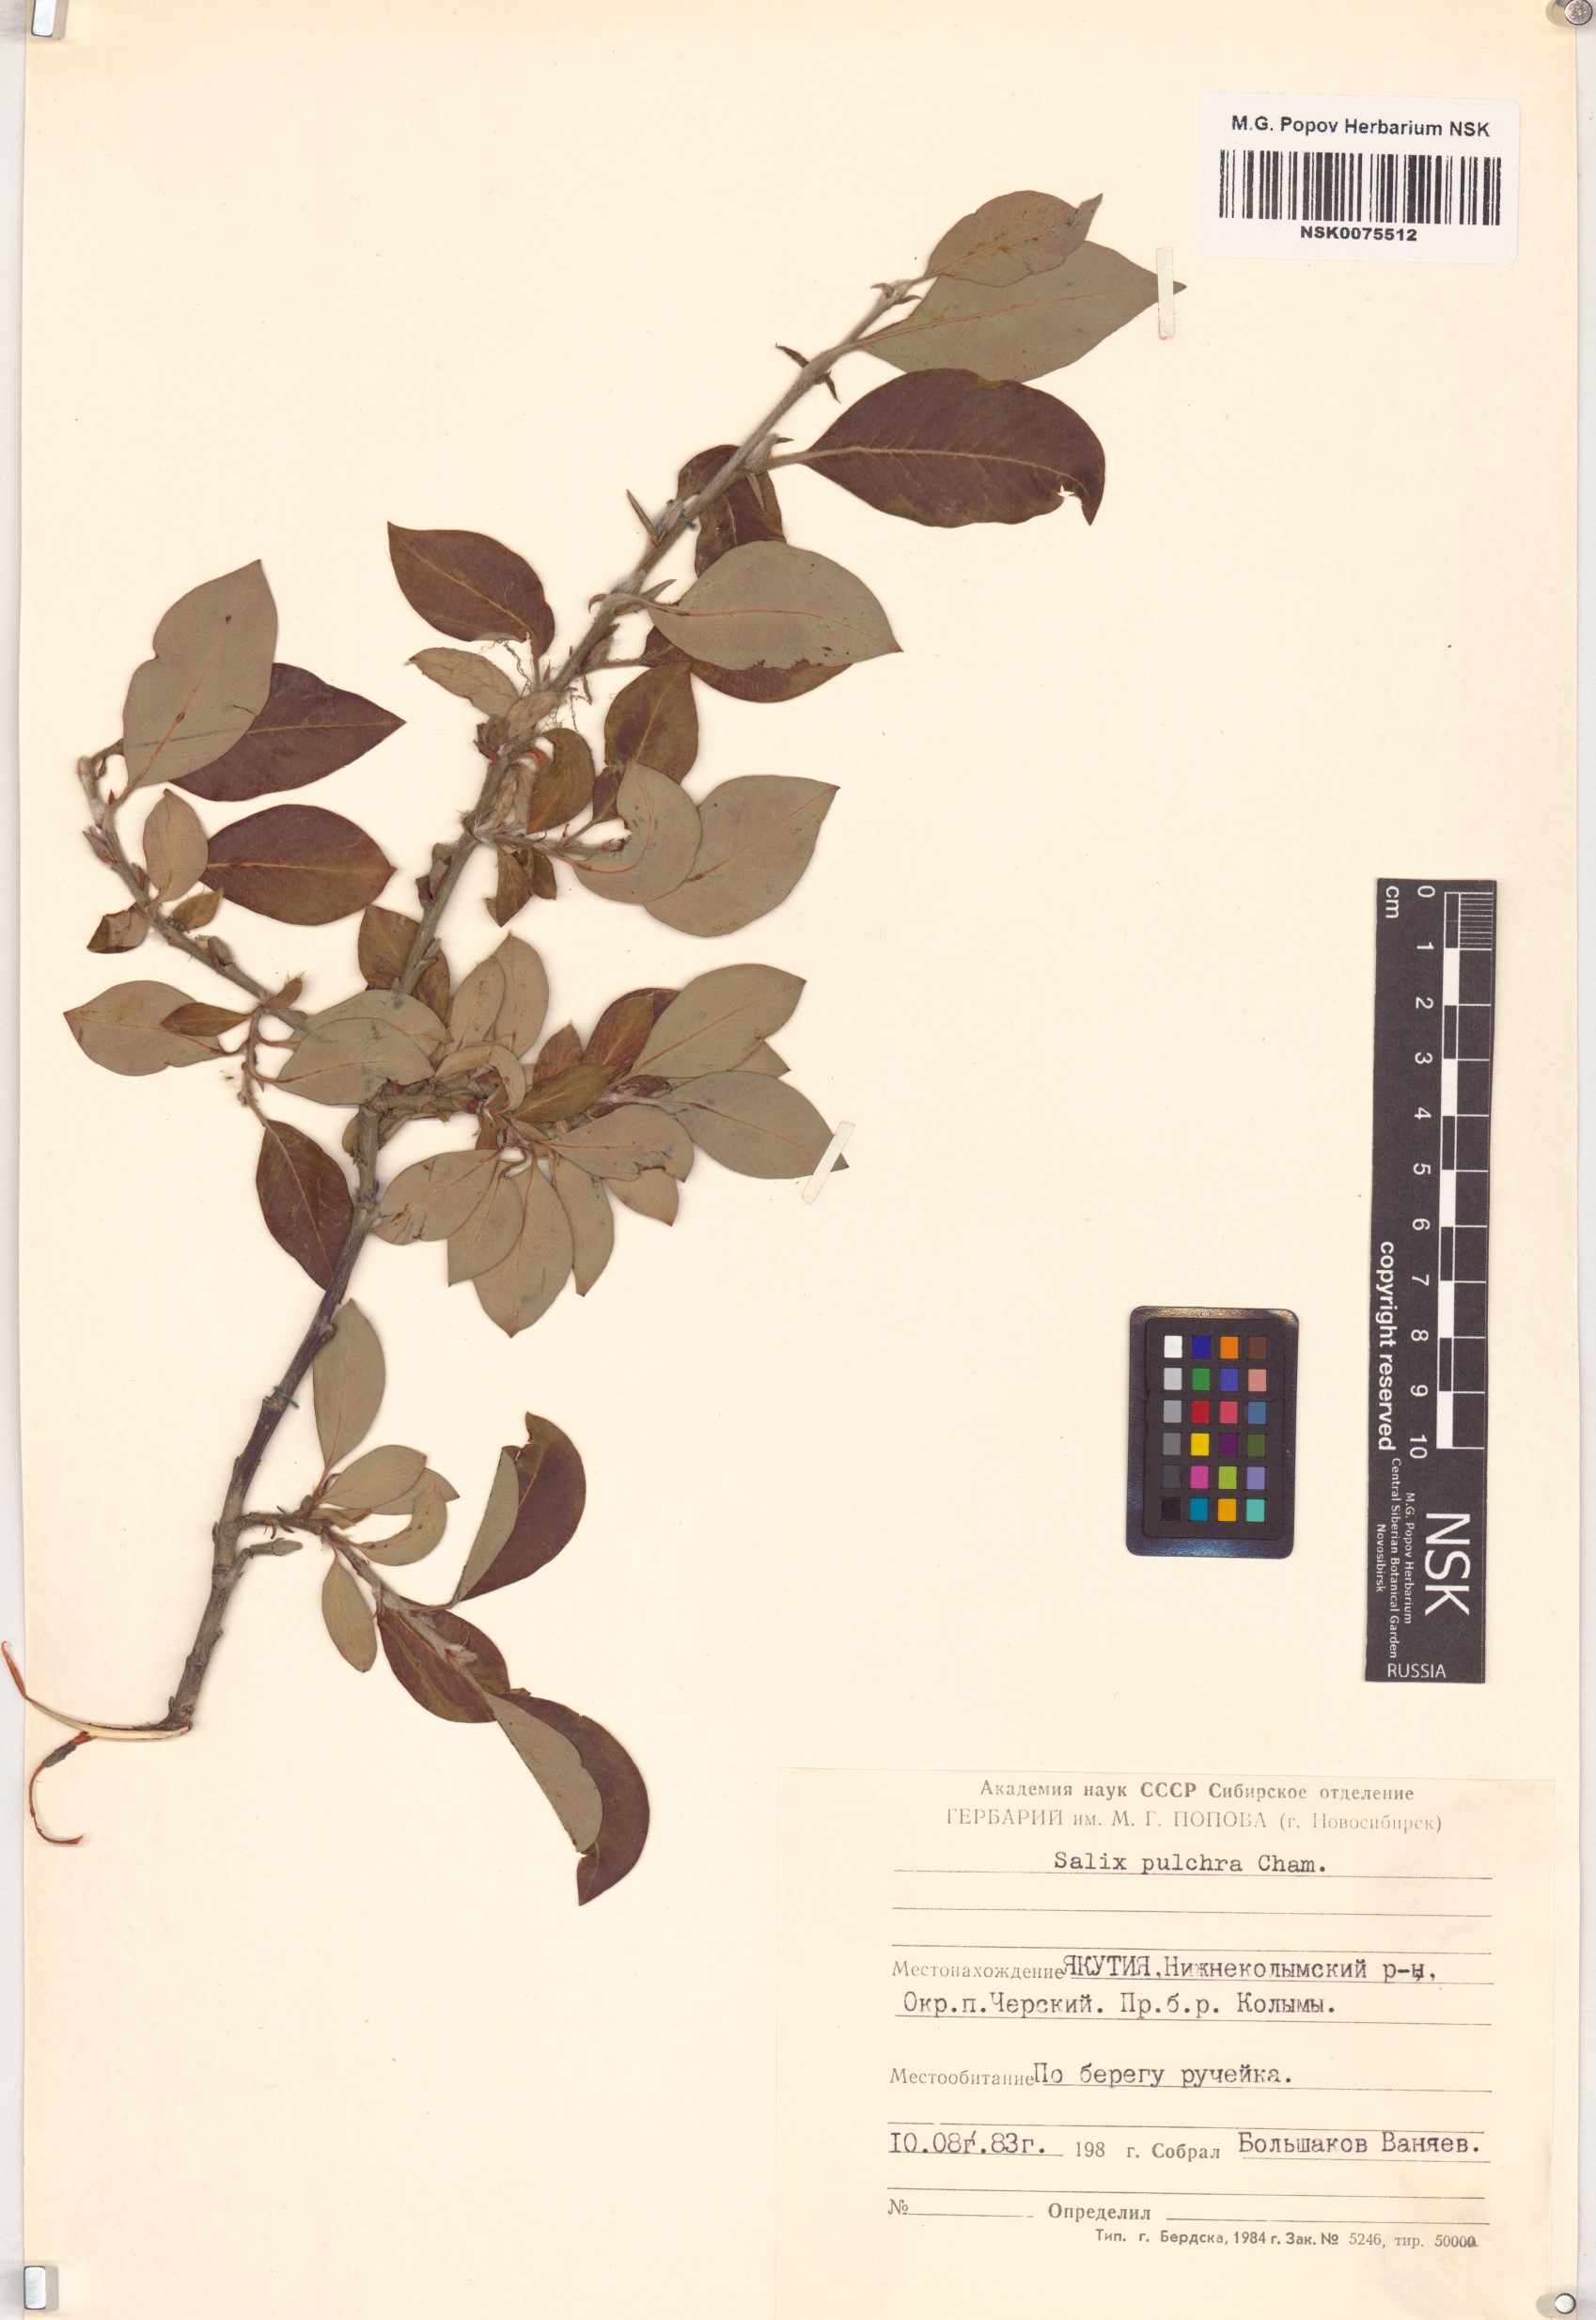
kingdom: Plantae
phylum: Tracheophyta
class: Magnoliopsida
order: Malpighiales
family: Salicaceae
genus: Salix
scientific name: Salix pulchra
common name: Diamond-leaved willow
